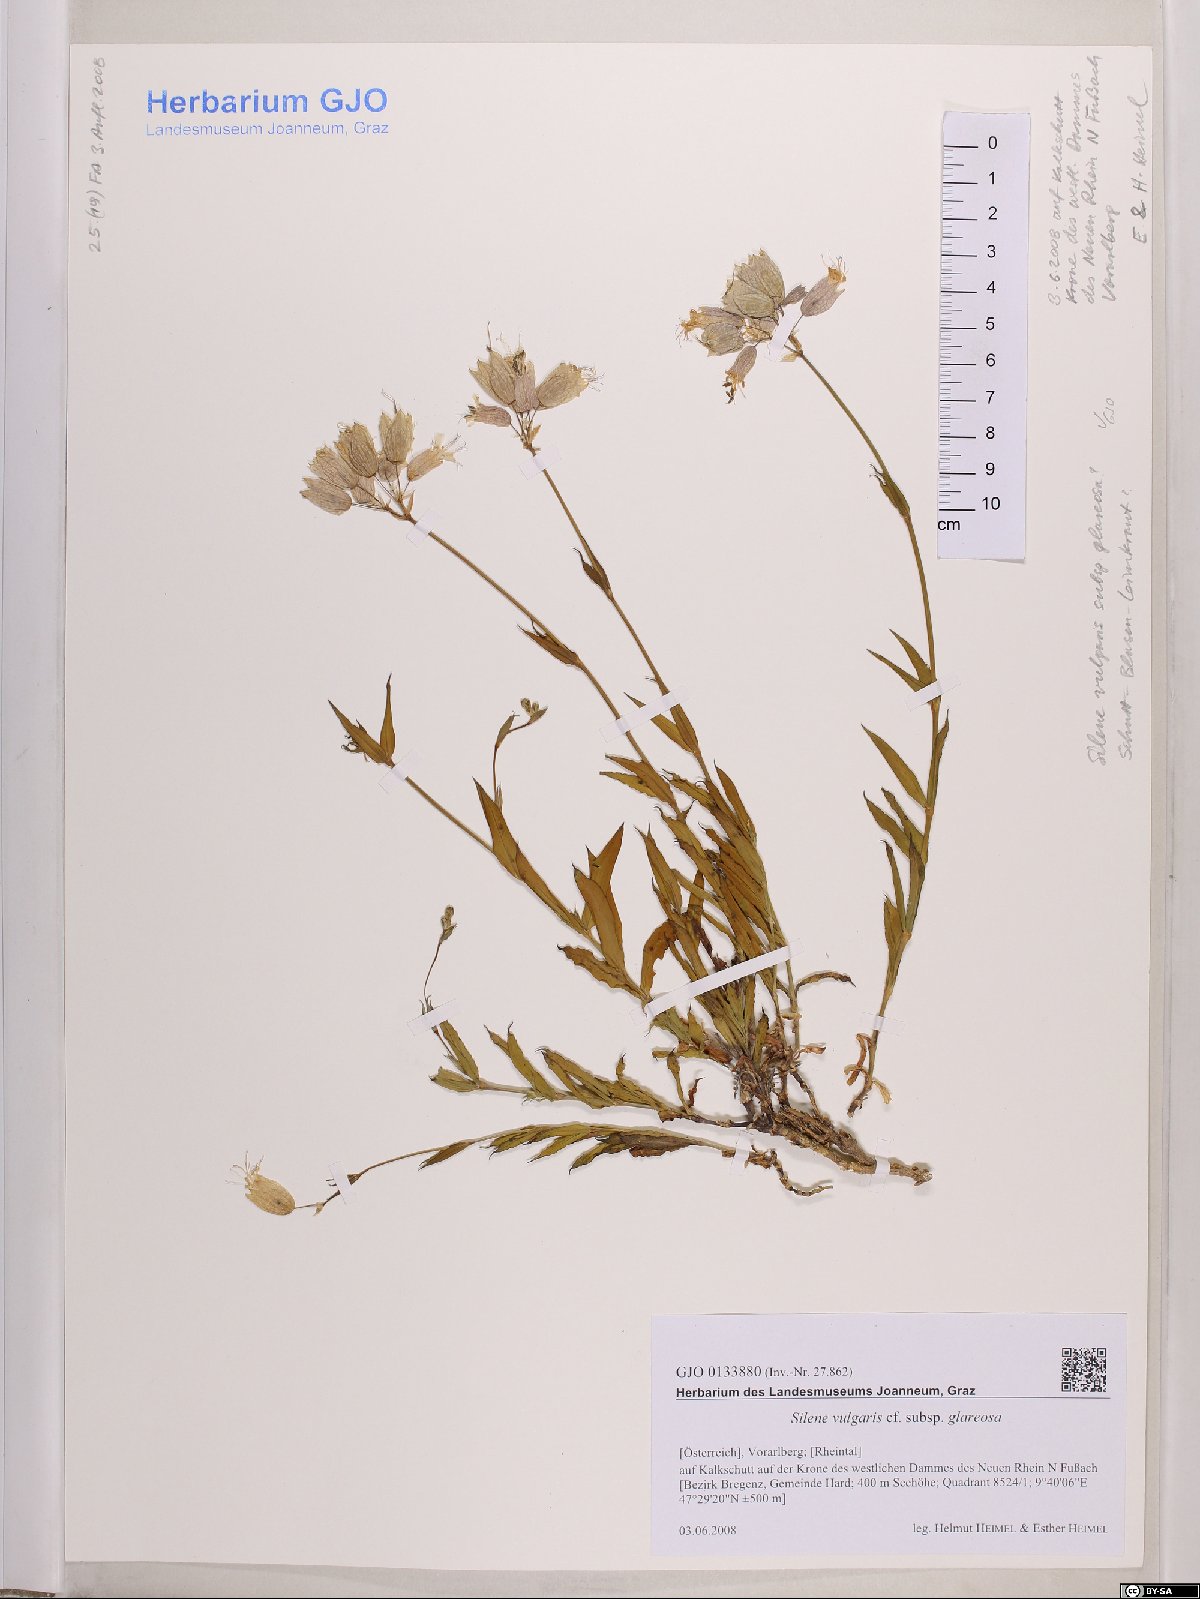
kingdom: Plantae
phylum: Tracheophyta
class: Magnoliopsida
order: Caryophyllales
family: Caryophyllaceae
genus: Silene
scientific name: Silene glareosa
